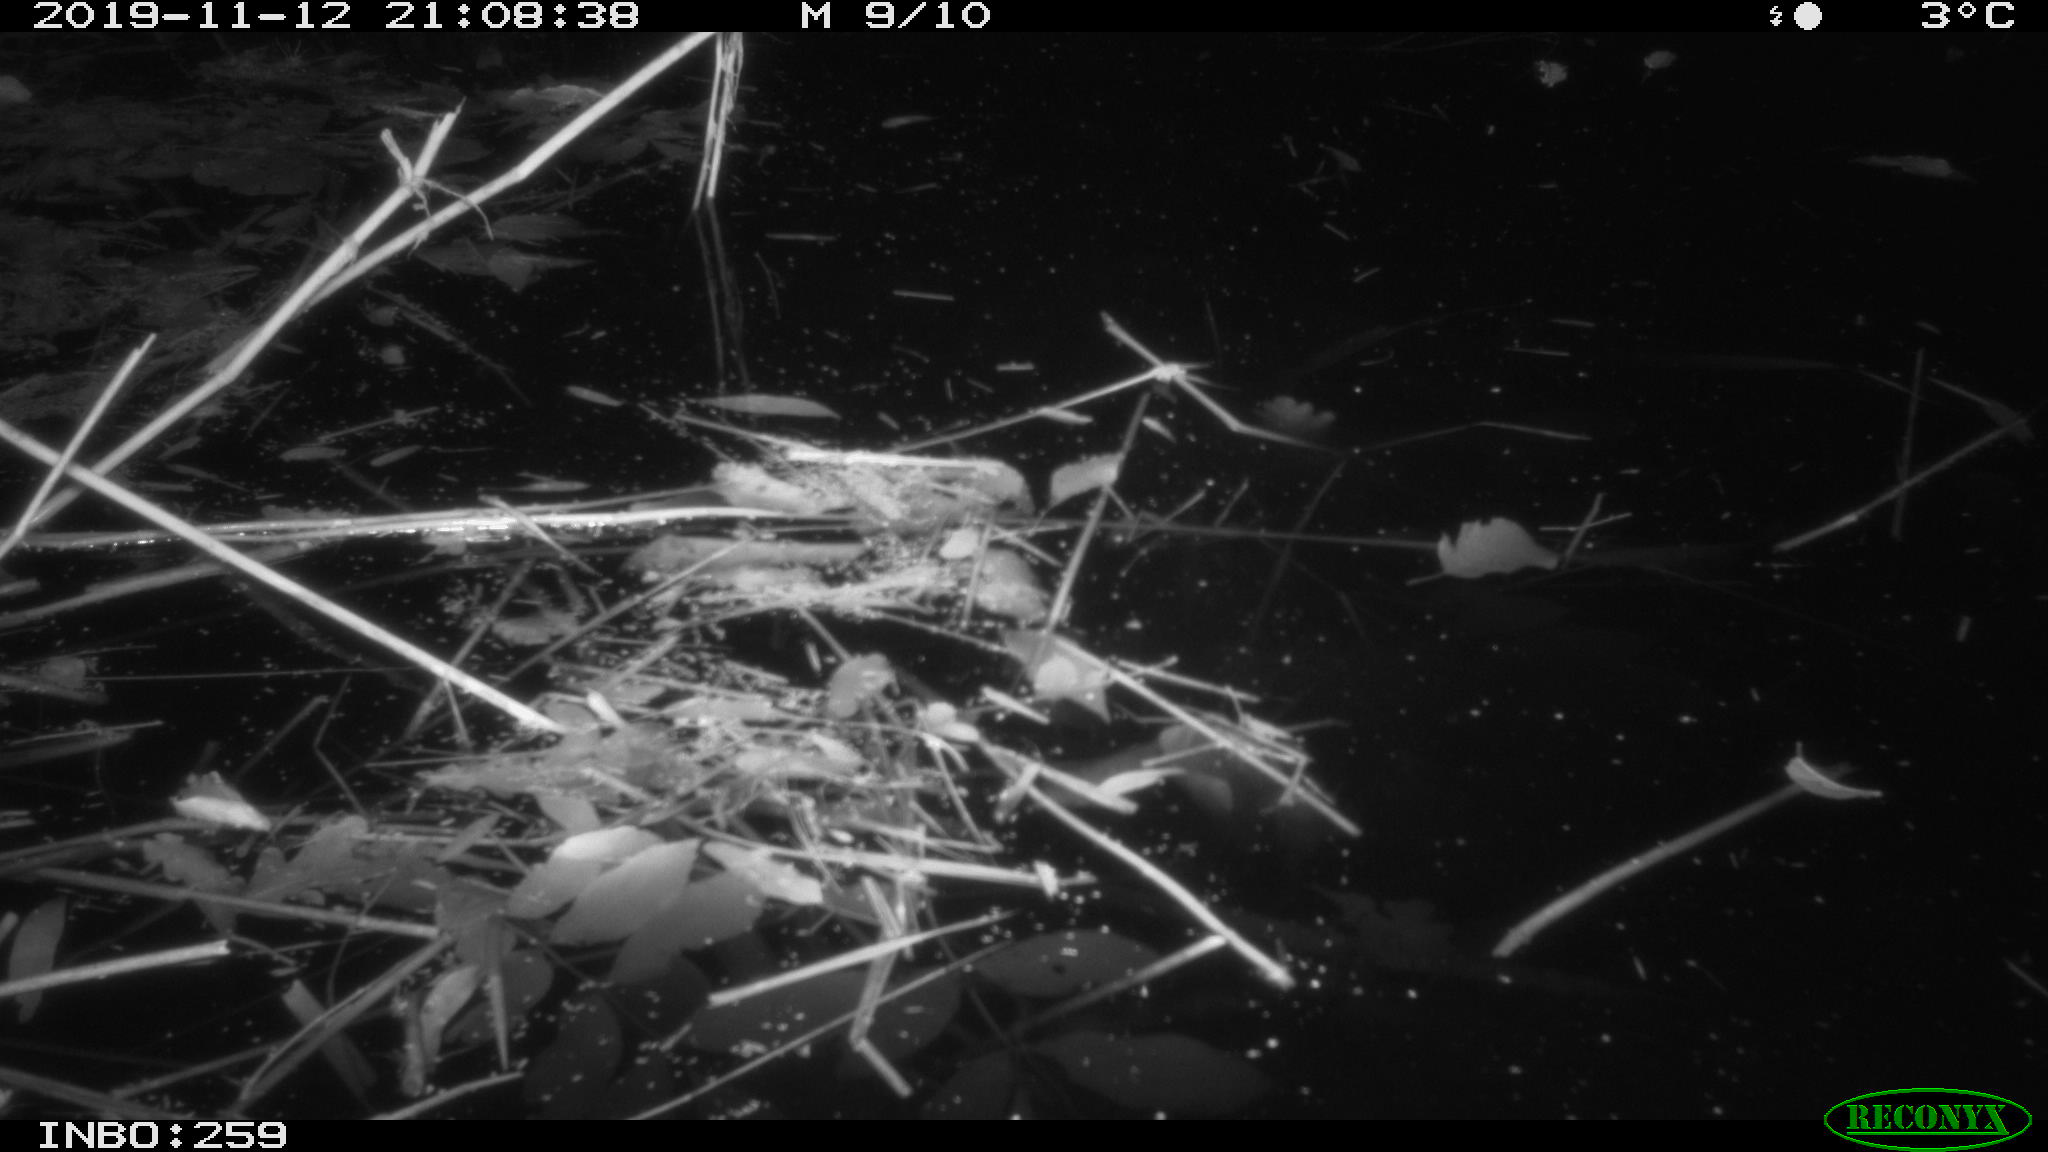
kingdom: Animalia
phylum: Chordata
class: Mammalia
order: Rodentia
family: Cricetidae
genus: Ondatra
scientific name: Ondatra zibethicus
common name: Muskrat
